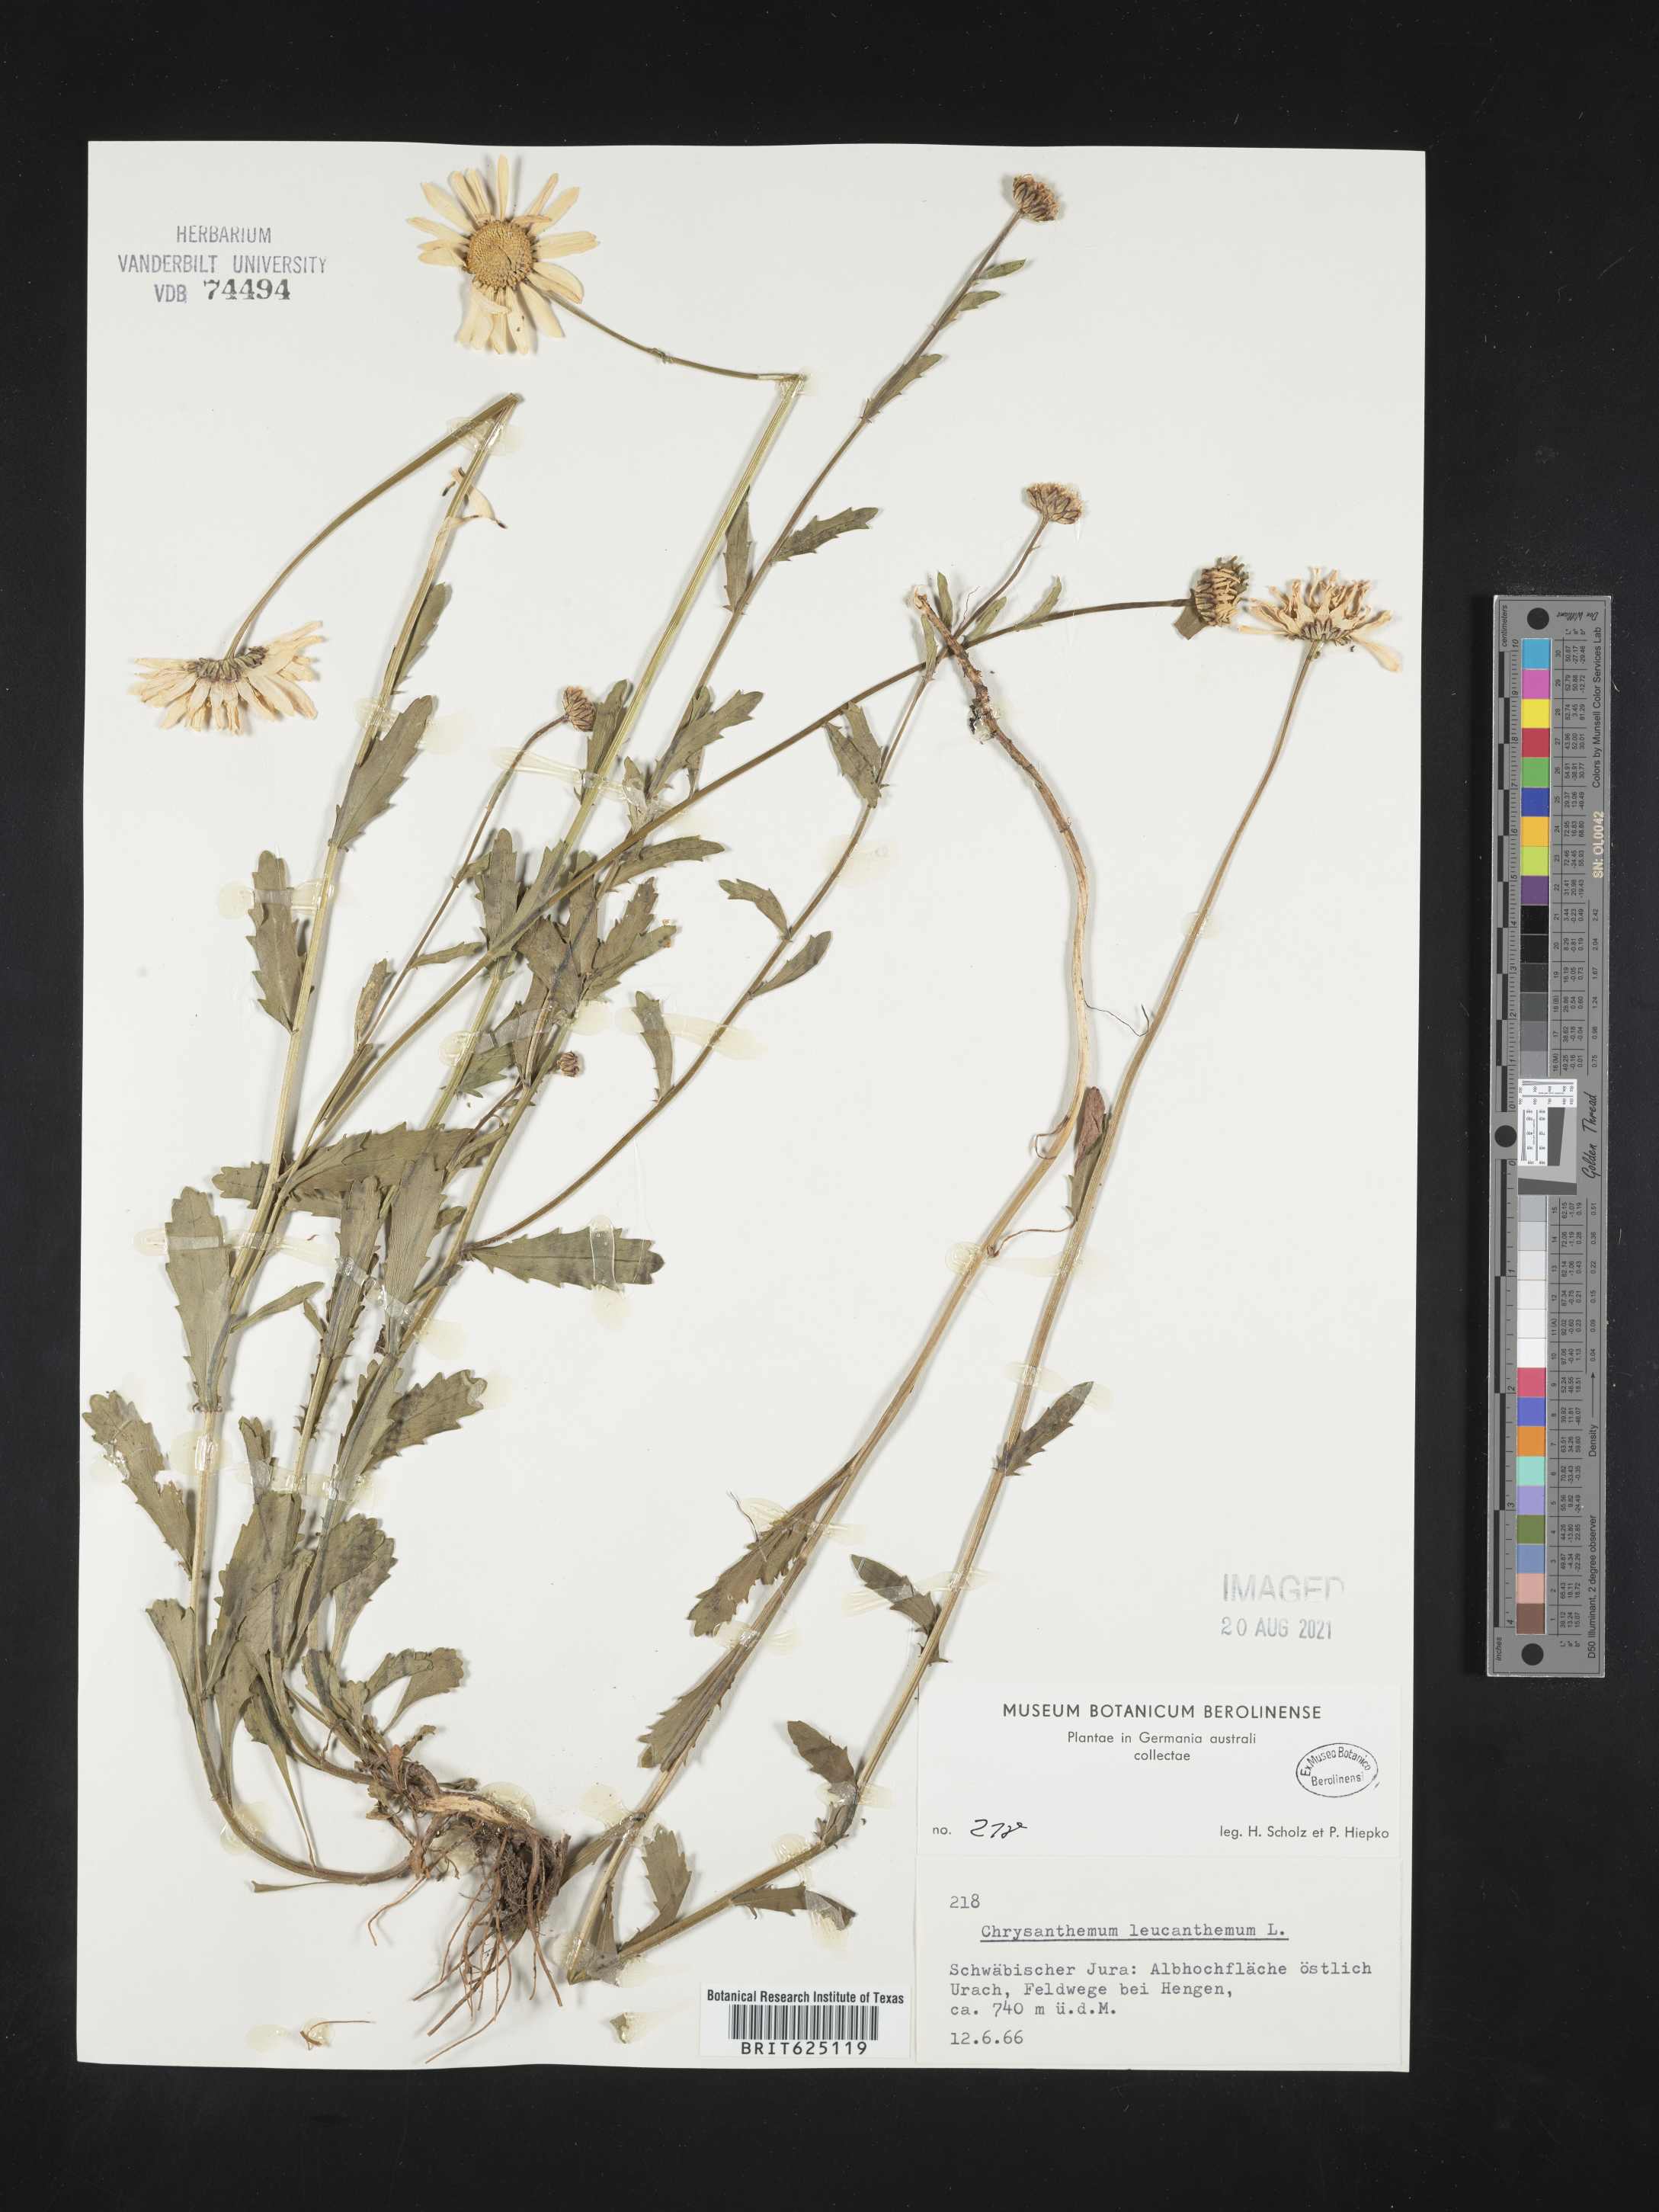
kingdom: Plantae
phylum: Tracheophyta
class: Magnoliopsida
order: Asterales
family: Asteraceae
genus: Leucanthemum
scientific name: Leucanthemum vulgare
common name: Oxeye daisy
